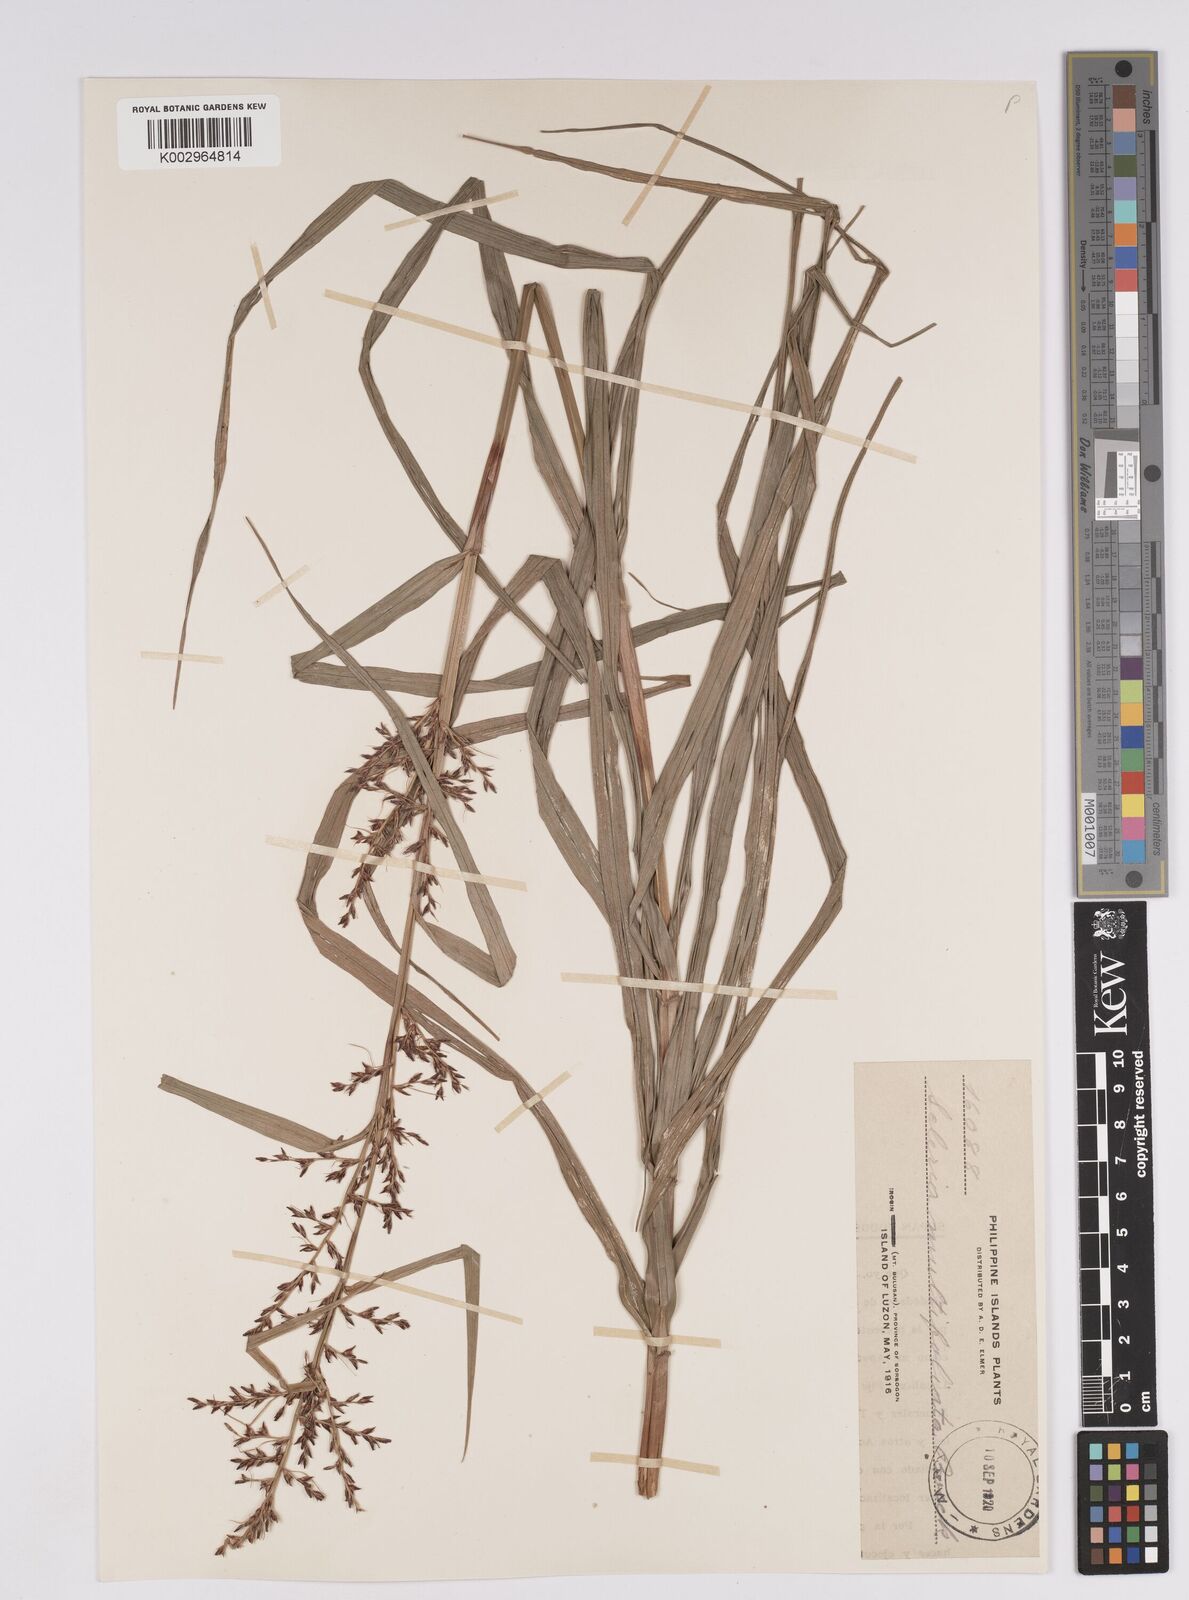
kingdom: Plantae
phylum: Tracheophyta
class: Liliopsida
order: Poales
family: Cyperaceae
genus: Scleria
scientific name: Scleria purpurascens
